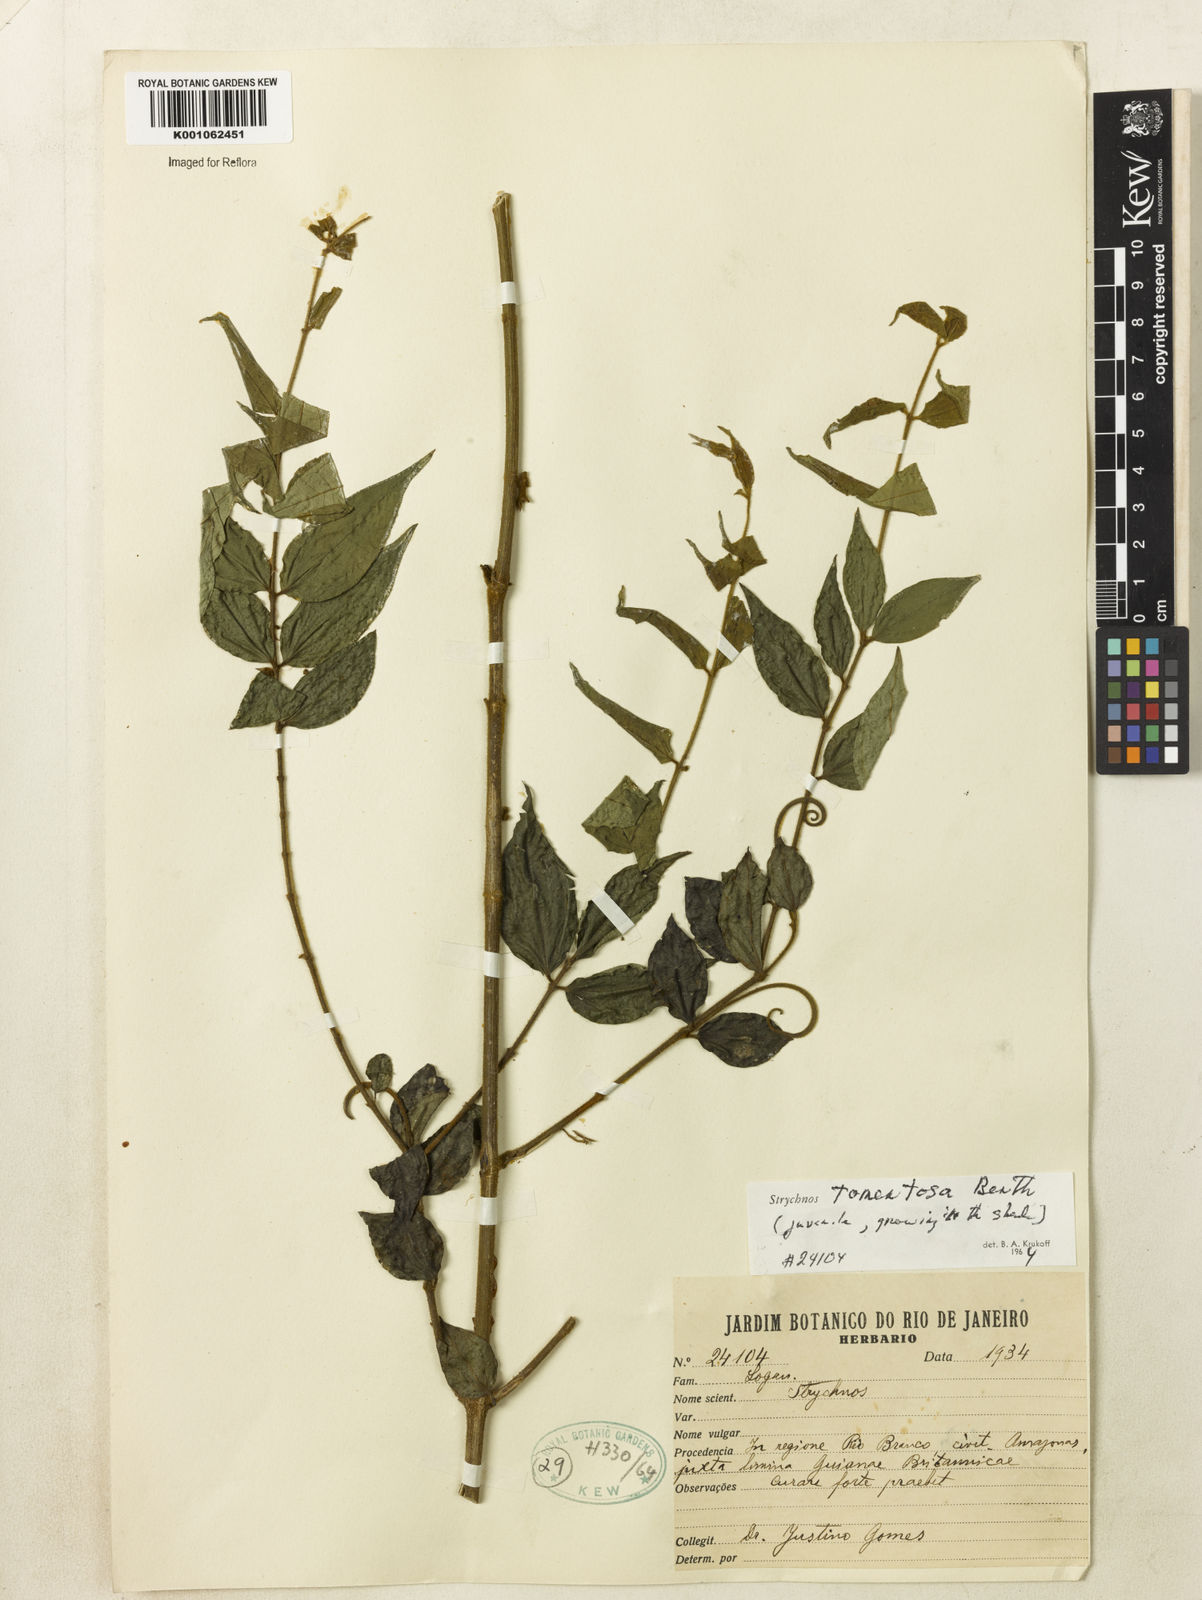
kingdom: Plantae
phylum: Tracheophyta
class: Magnoliopsida
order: Gentianales
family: Loganiaceae
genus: Strychnos
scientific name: Strychnos tomentosa
